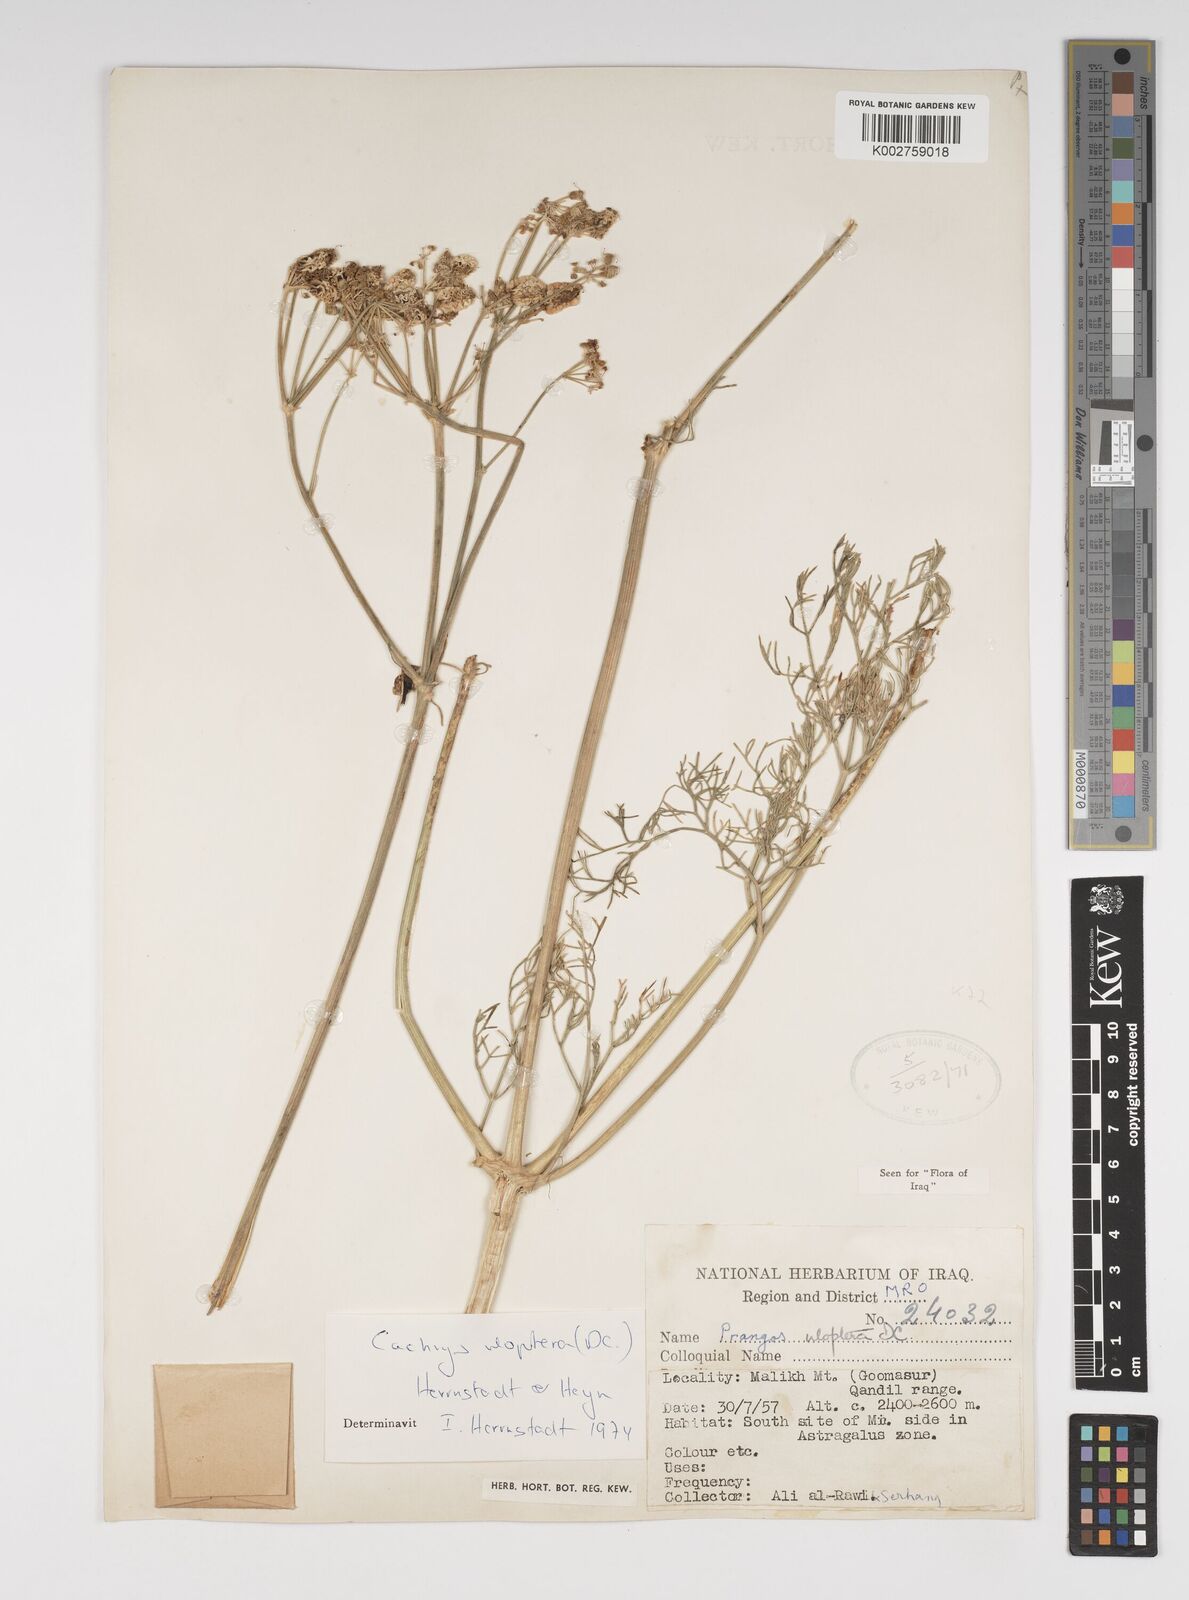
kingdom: Plantae
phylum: Tracheophyta
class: Magnoliopsida
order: Apiales
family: Apiaceae
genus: Prangos
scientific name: Prangos uloptera
